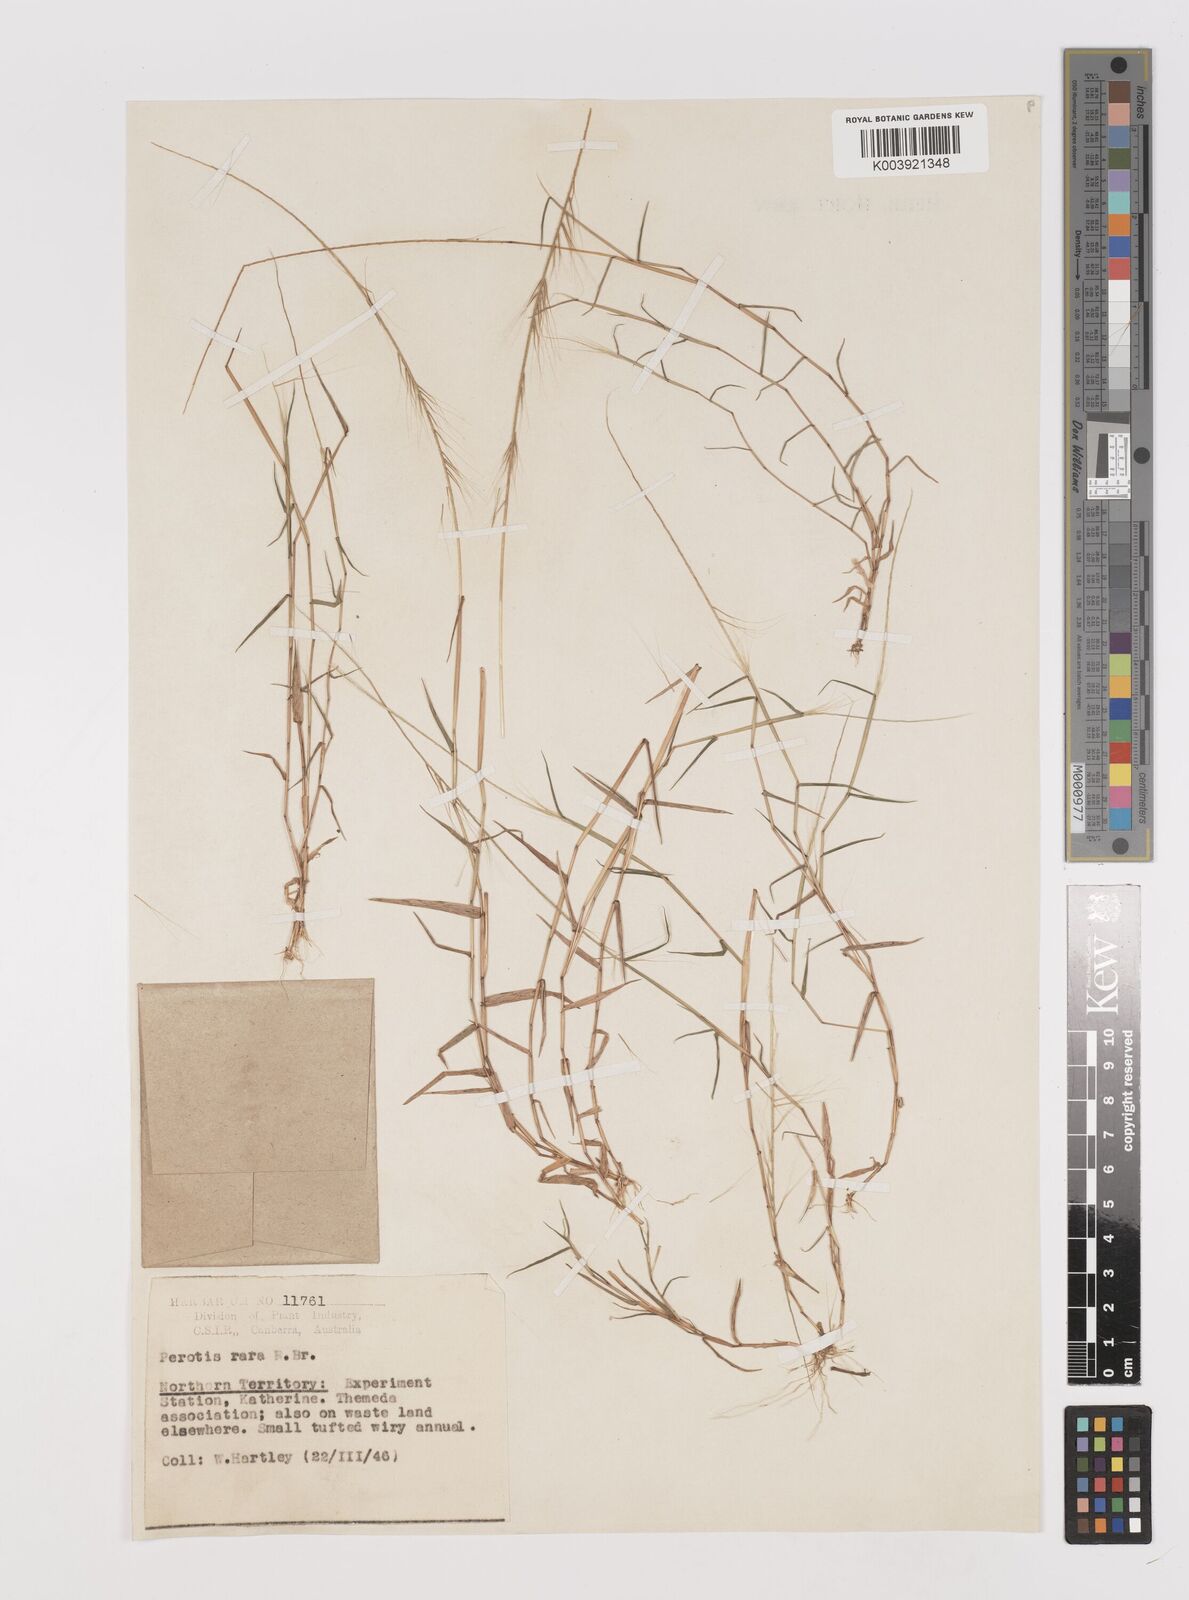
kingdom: Plantae
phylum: Tracheophyta
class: Liliopsida
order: Poales
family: Poaceae
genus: Perotis
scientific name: Perotis rara
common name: Comet grass
